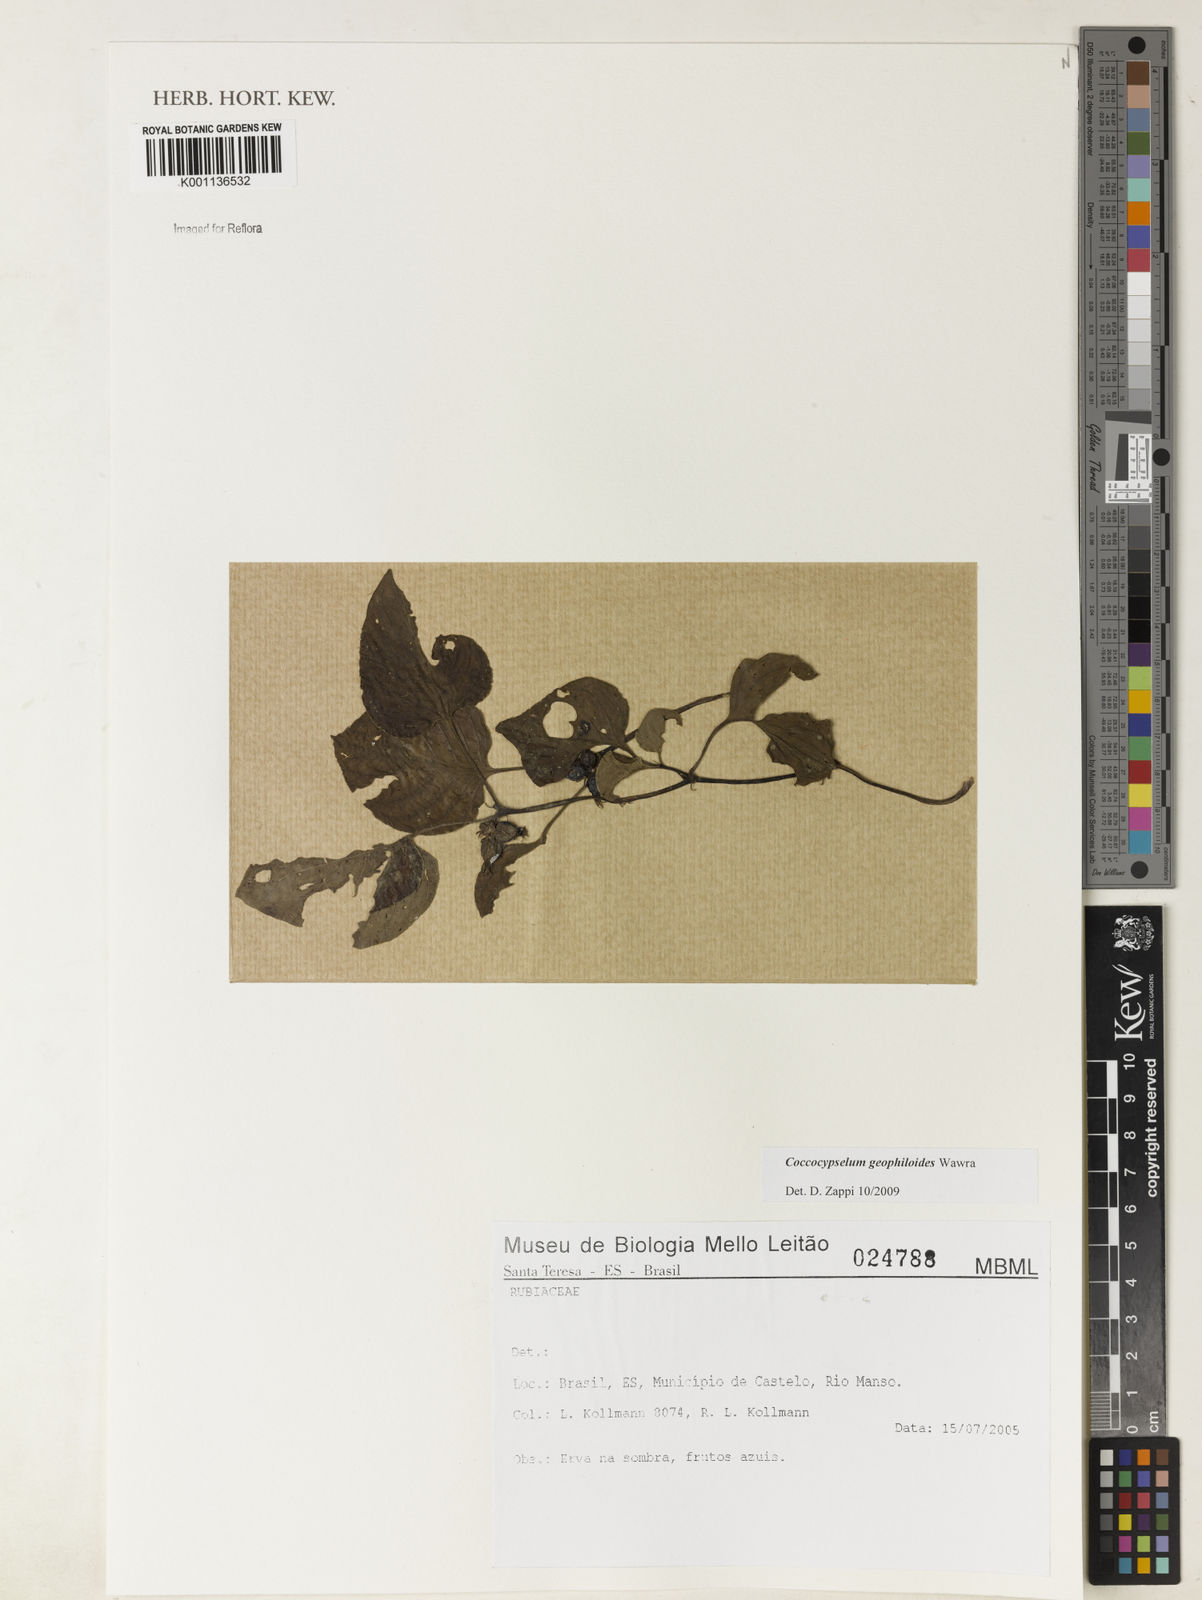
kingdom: Plantae
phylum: Tracheophyta
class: Magnoliopsida
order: Gentianales
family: Rubiaceae
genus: Coccocypselum
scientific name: Coccocypselum geophiloides
